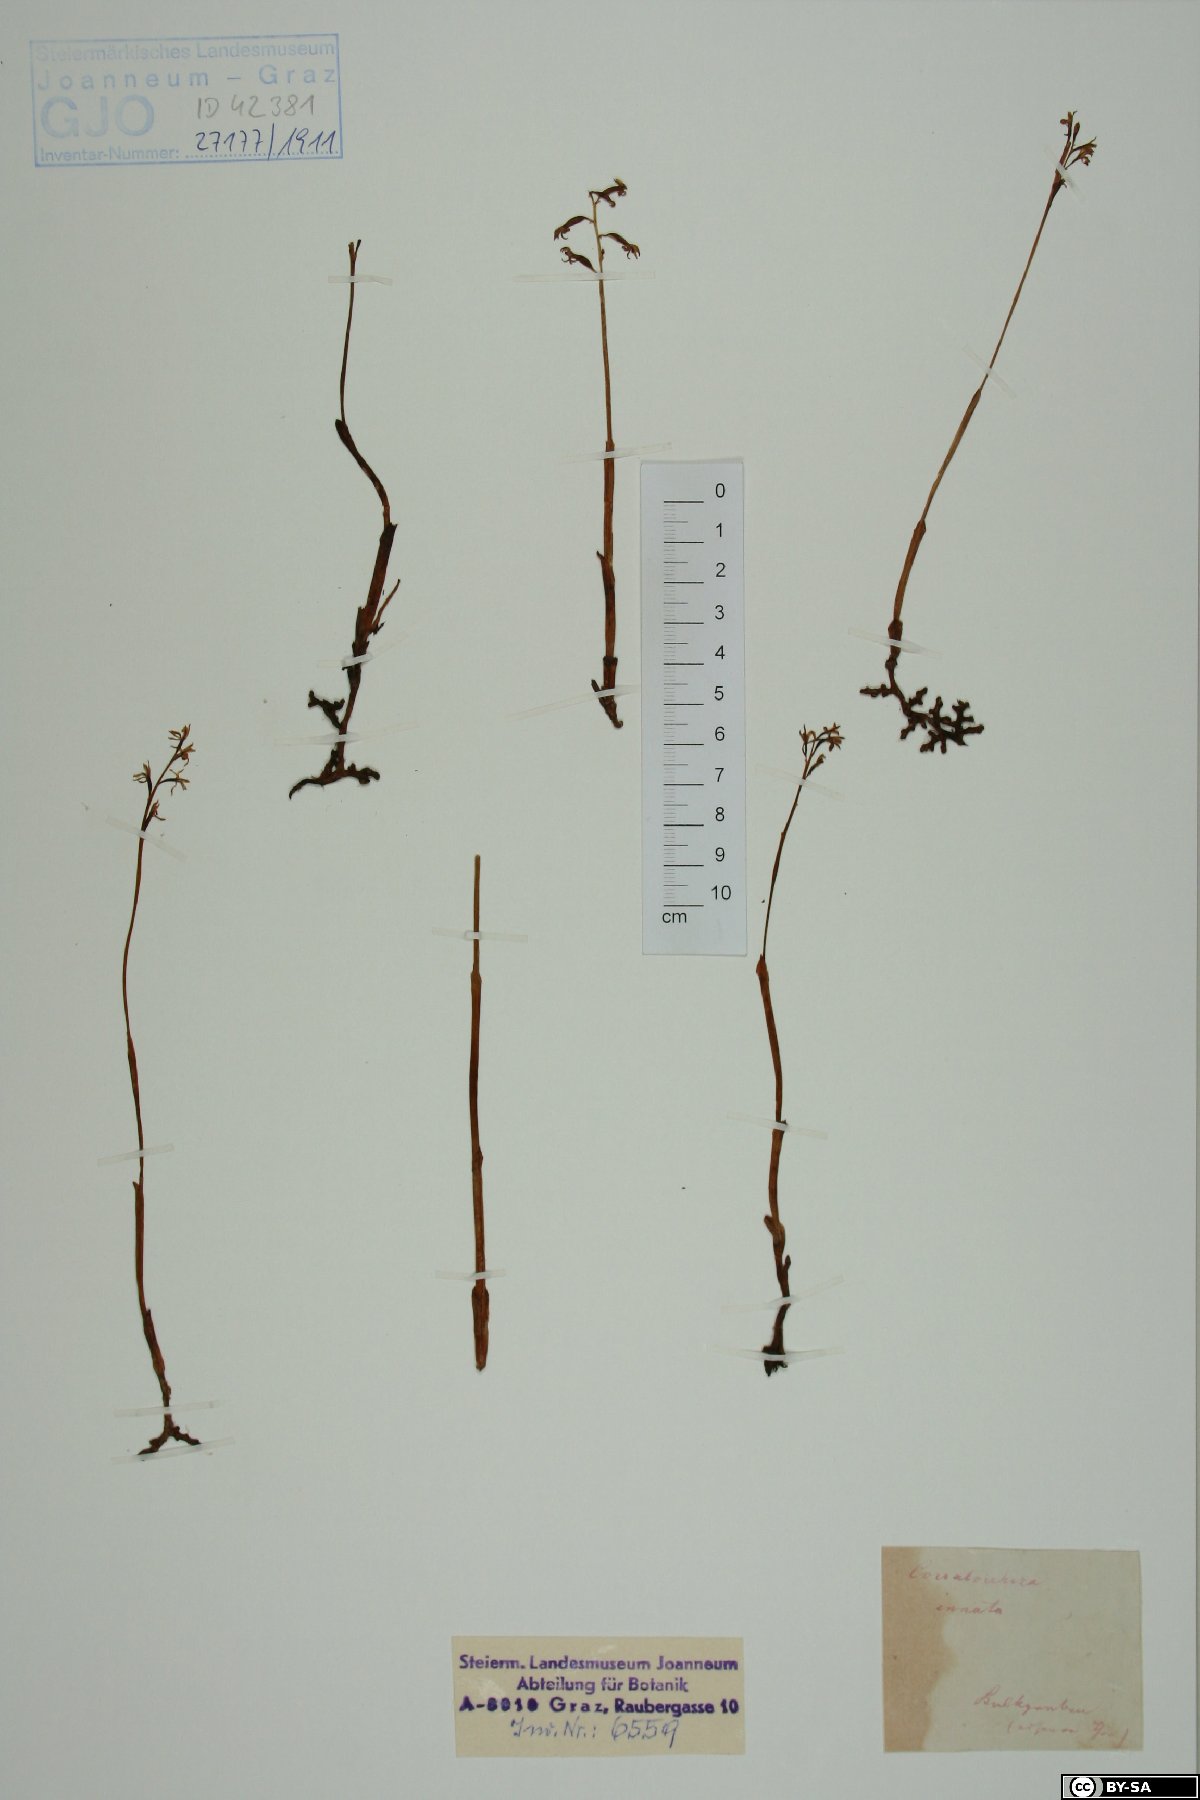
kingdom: Plantae
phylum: Tracheophyta
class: Liliopsida
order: Asparagales
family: Orchidaceae
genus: Corallorhiza
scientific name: Corallorhiza trifida
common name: Yellow coralroot
